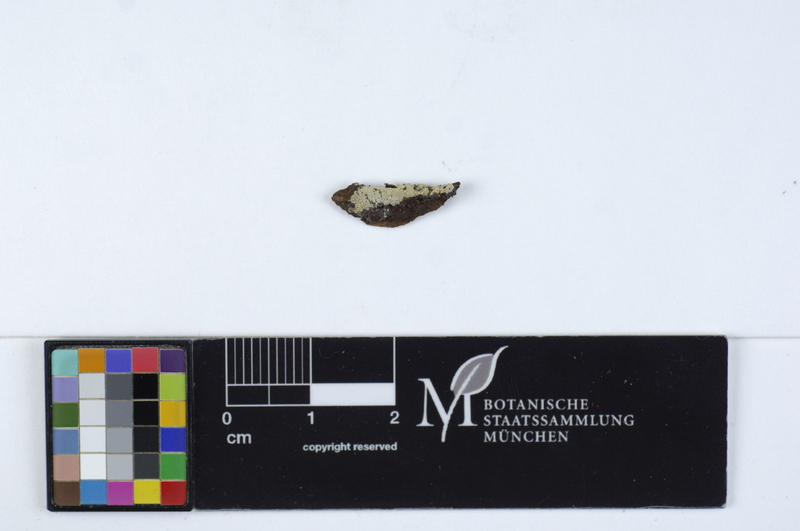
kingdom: Fungi
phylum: Basidiomycota
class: Agaricomycetes
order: Agaricales
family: Stephanosporaceae
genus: Cristinia
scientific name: Cristinia rhenana
